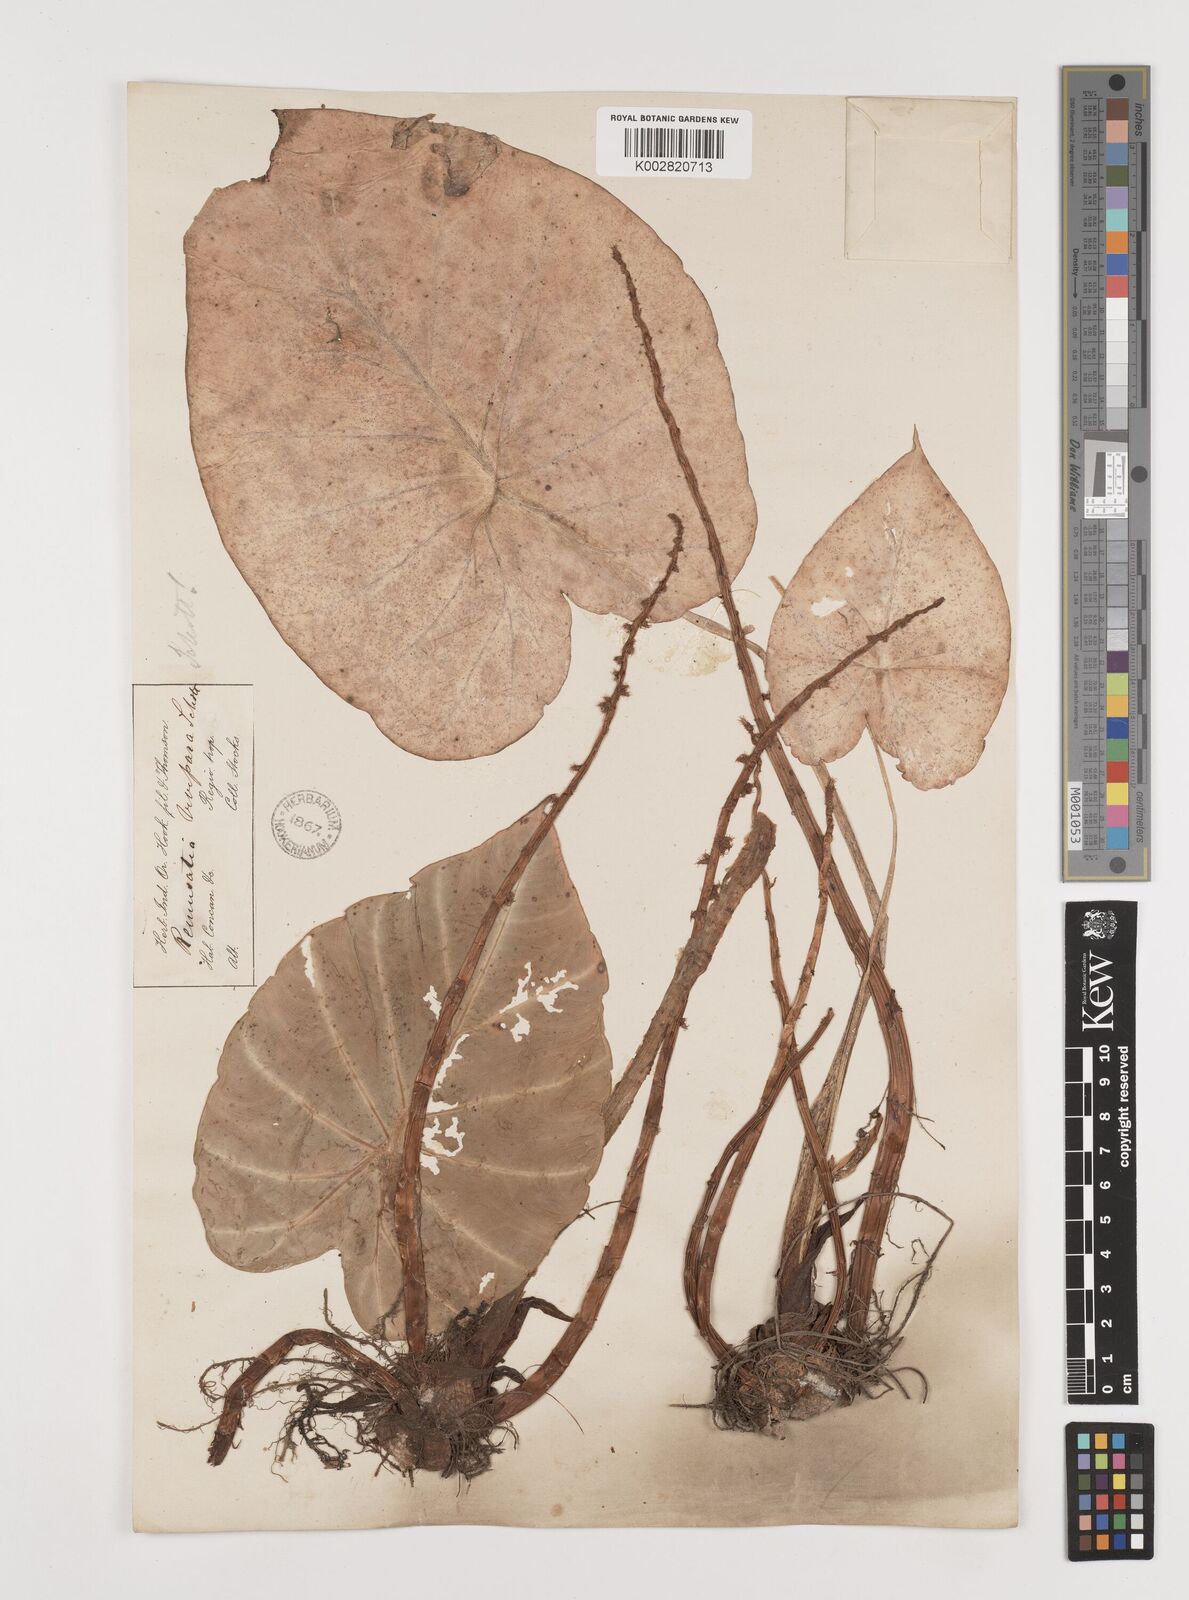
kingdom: Plantae
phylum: Tracheophyta
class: Liliopsida
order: Alismatales
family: Araceae
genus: Remusatia
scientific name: Remusatia vivipara
